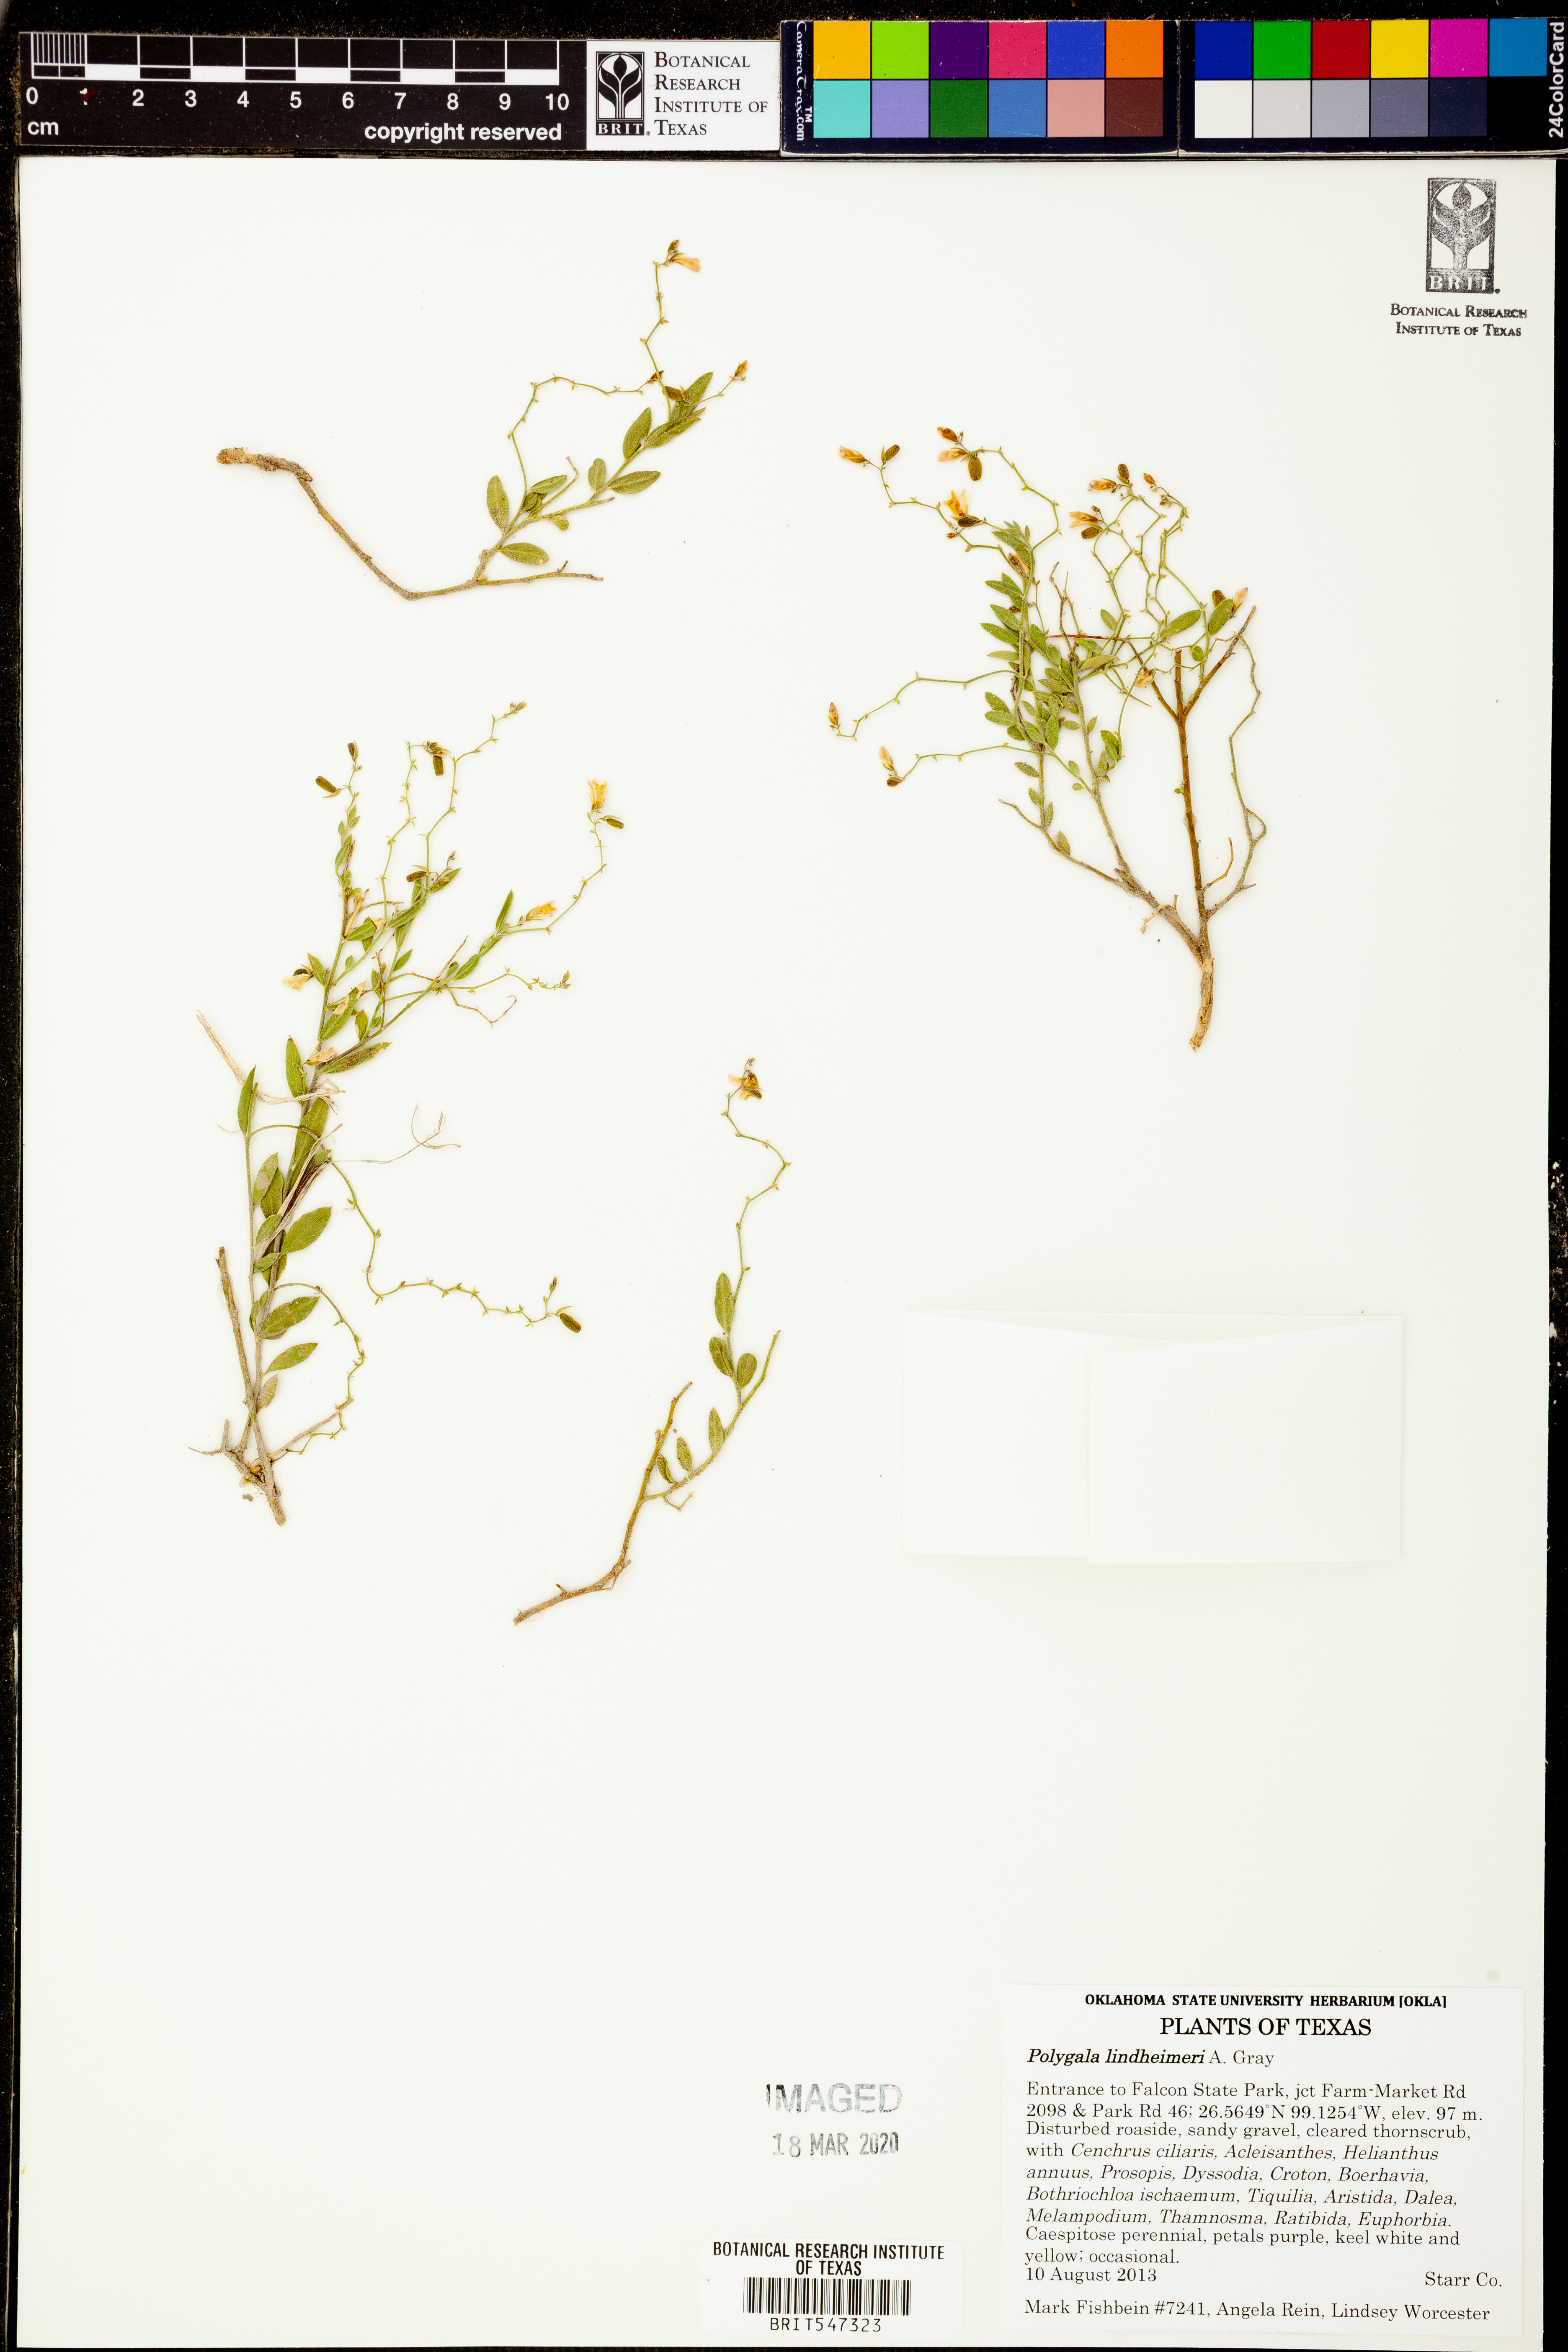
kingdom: Plantae
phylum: Tracheophyta
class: Magnoliopsida
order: Fabales
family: Polygalaceae
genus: Rhinotropis
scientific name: Rhinotropis lindheimeri
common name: Shrubby milkwort
